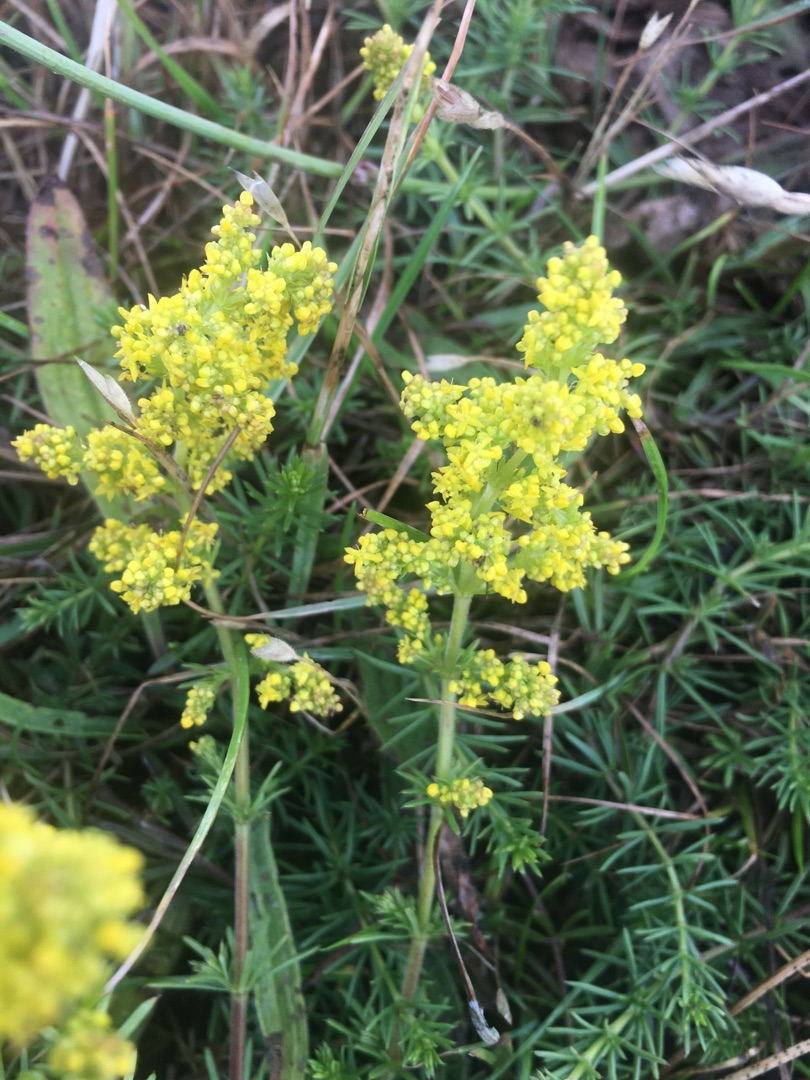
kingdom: Plantae
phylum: Tracheophyta
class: Magnoliopsida
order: Gentianales
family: Rubiaceae
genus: Galium
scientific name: Galium verum
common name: Gul snerre
